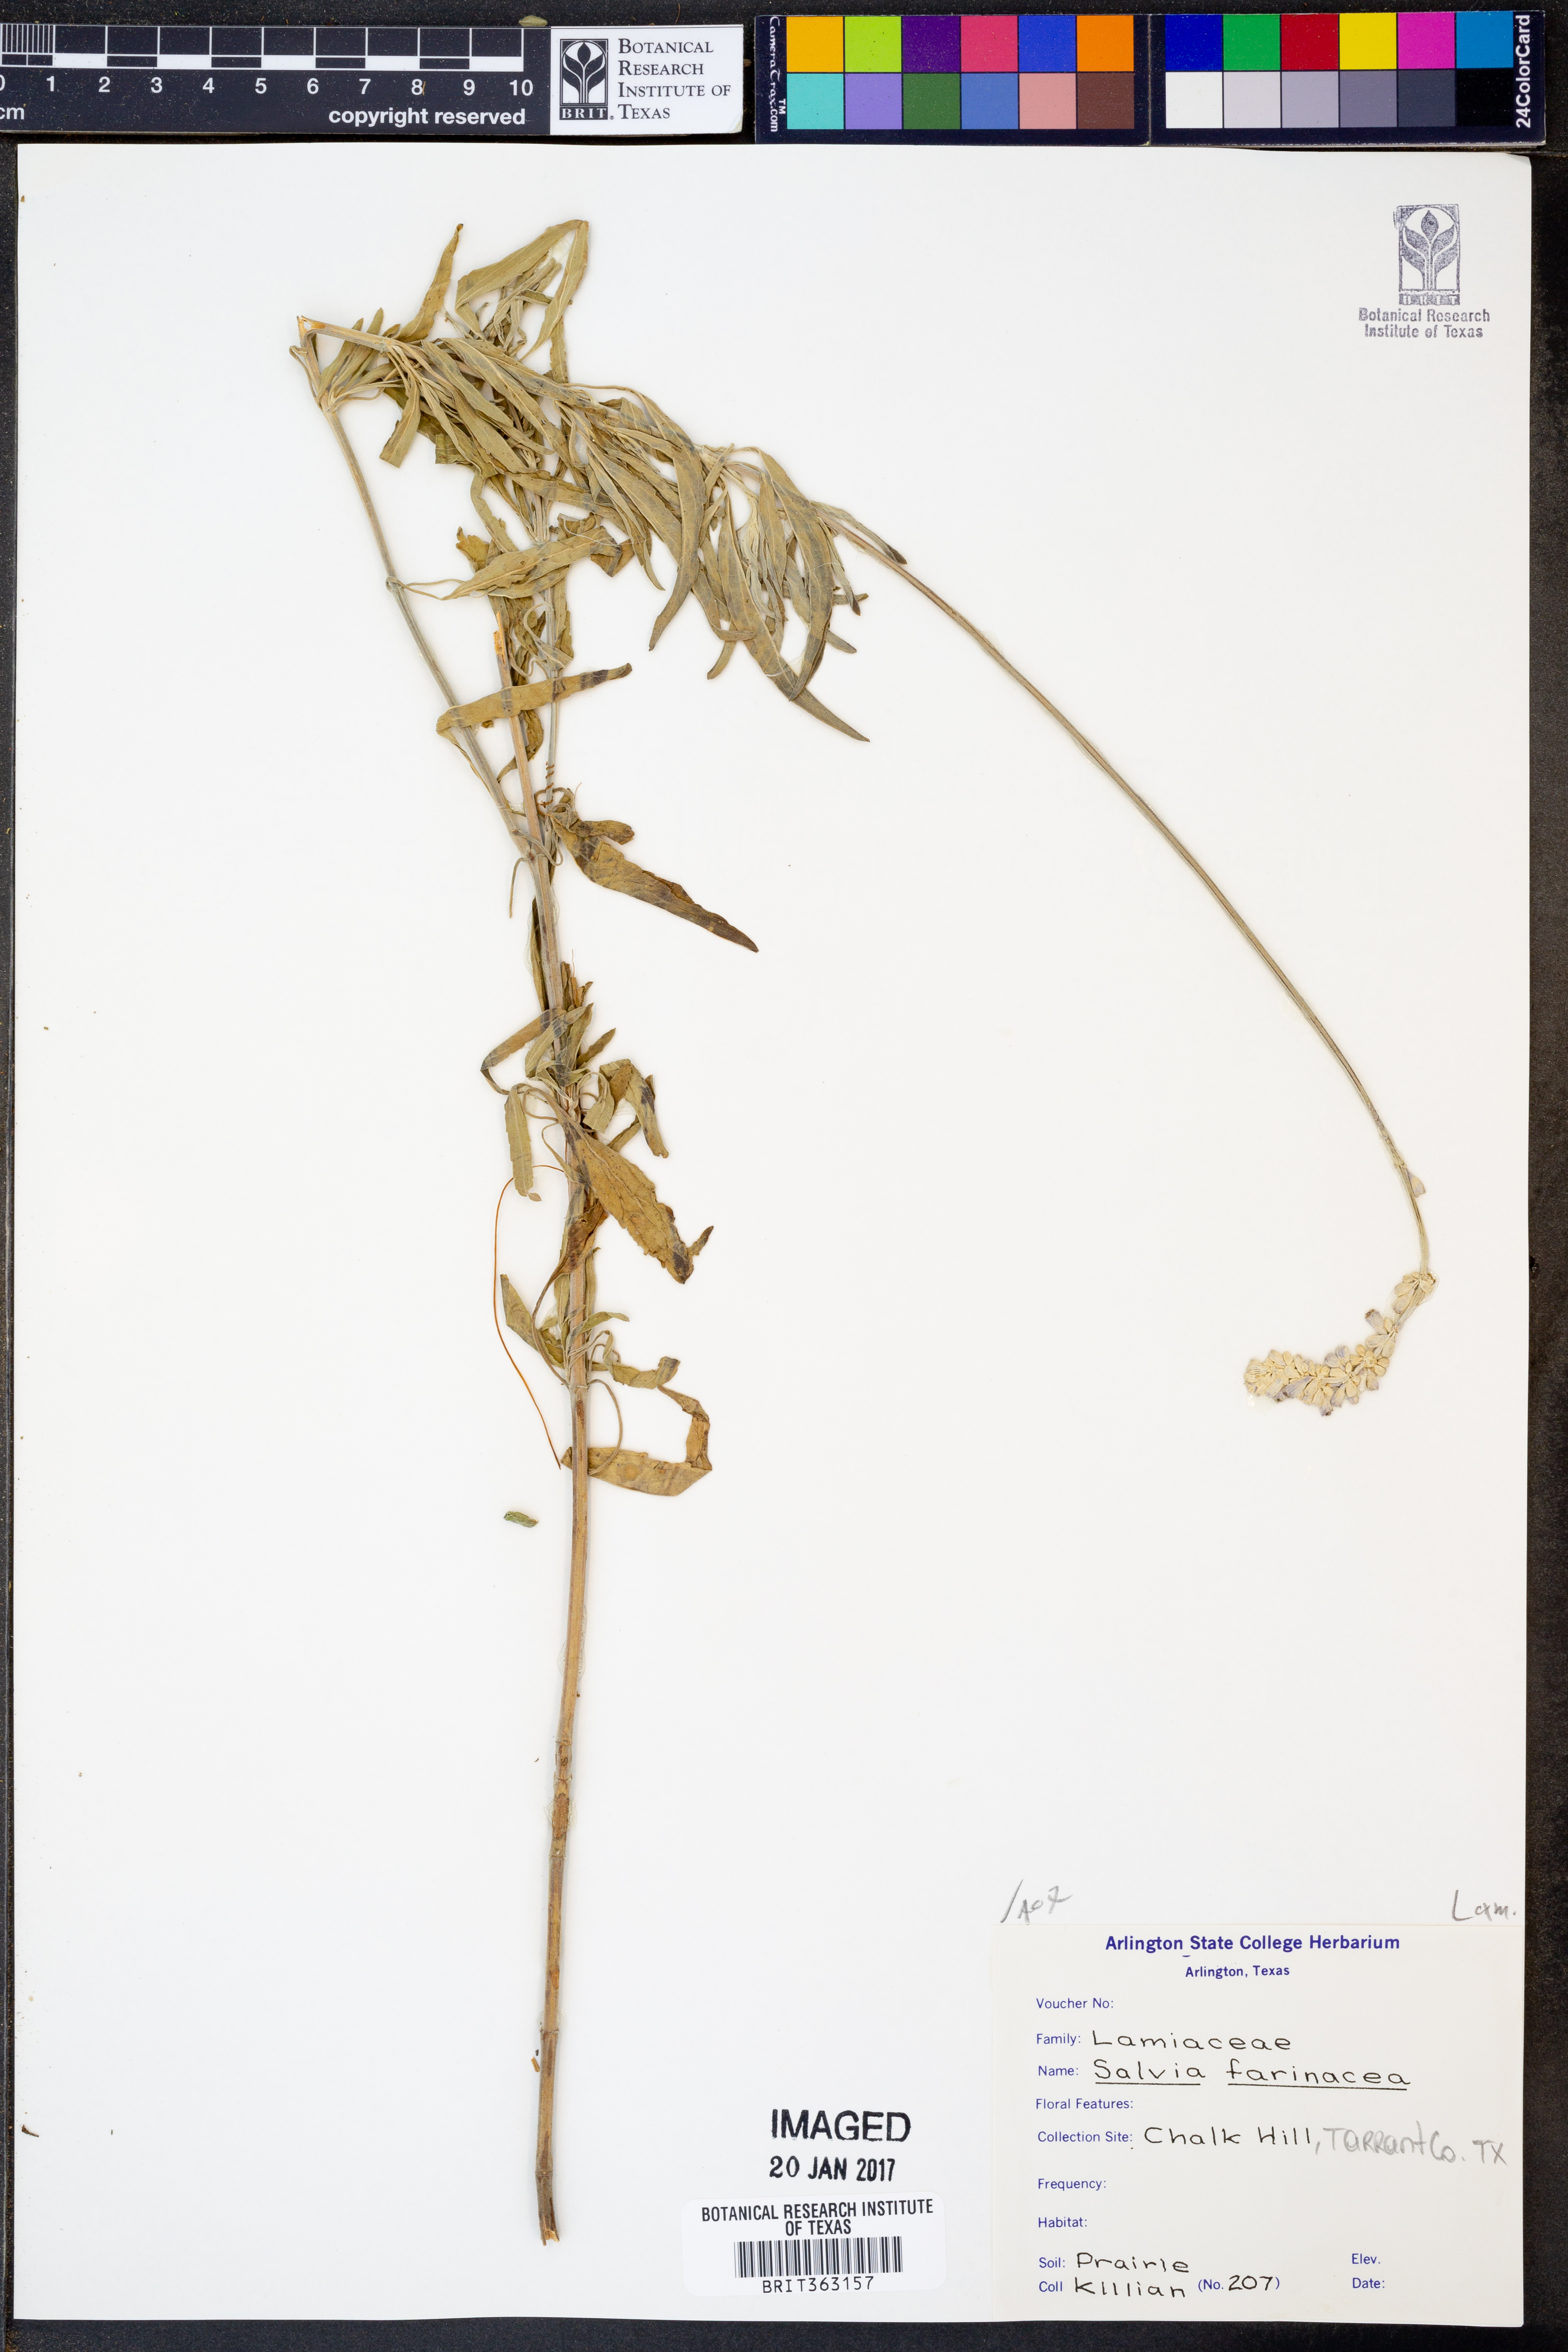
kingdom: Plantae
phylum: Tracheophyta
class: Magnoliopsida
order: Lamiales
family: Lamiaceae
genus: Salvia
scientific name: Salvia farinacea
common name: Mealy sage
